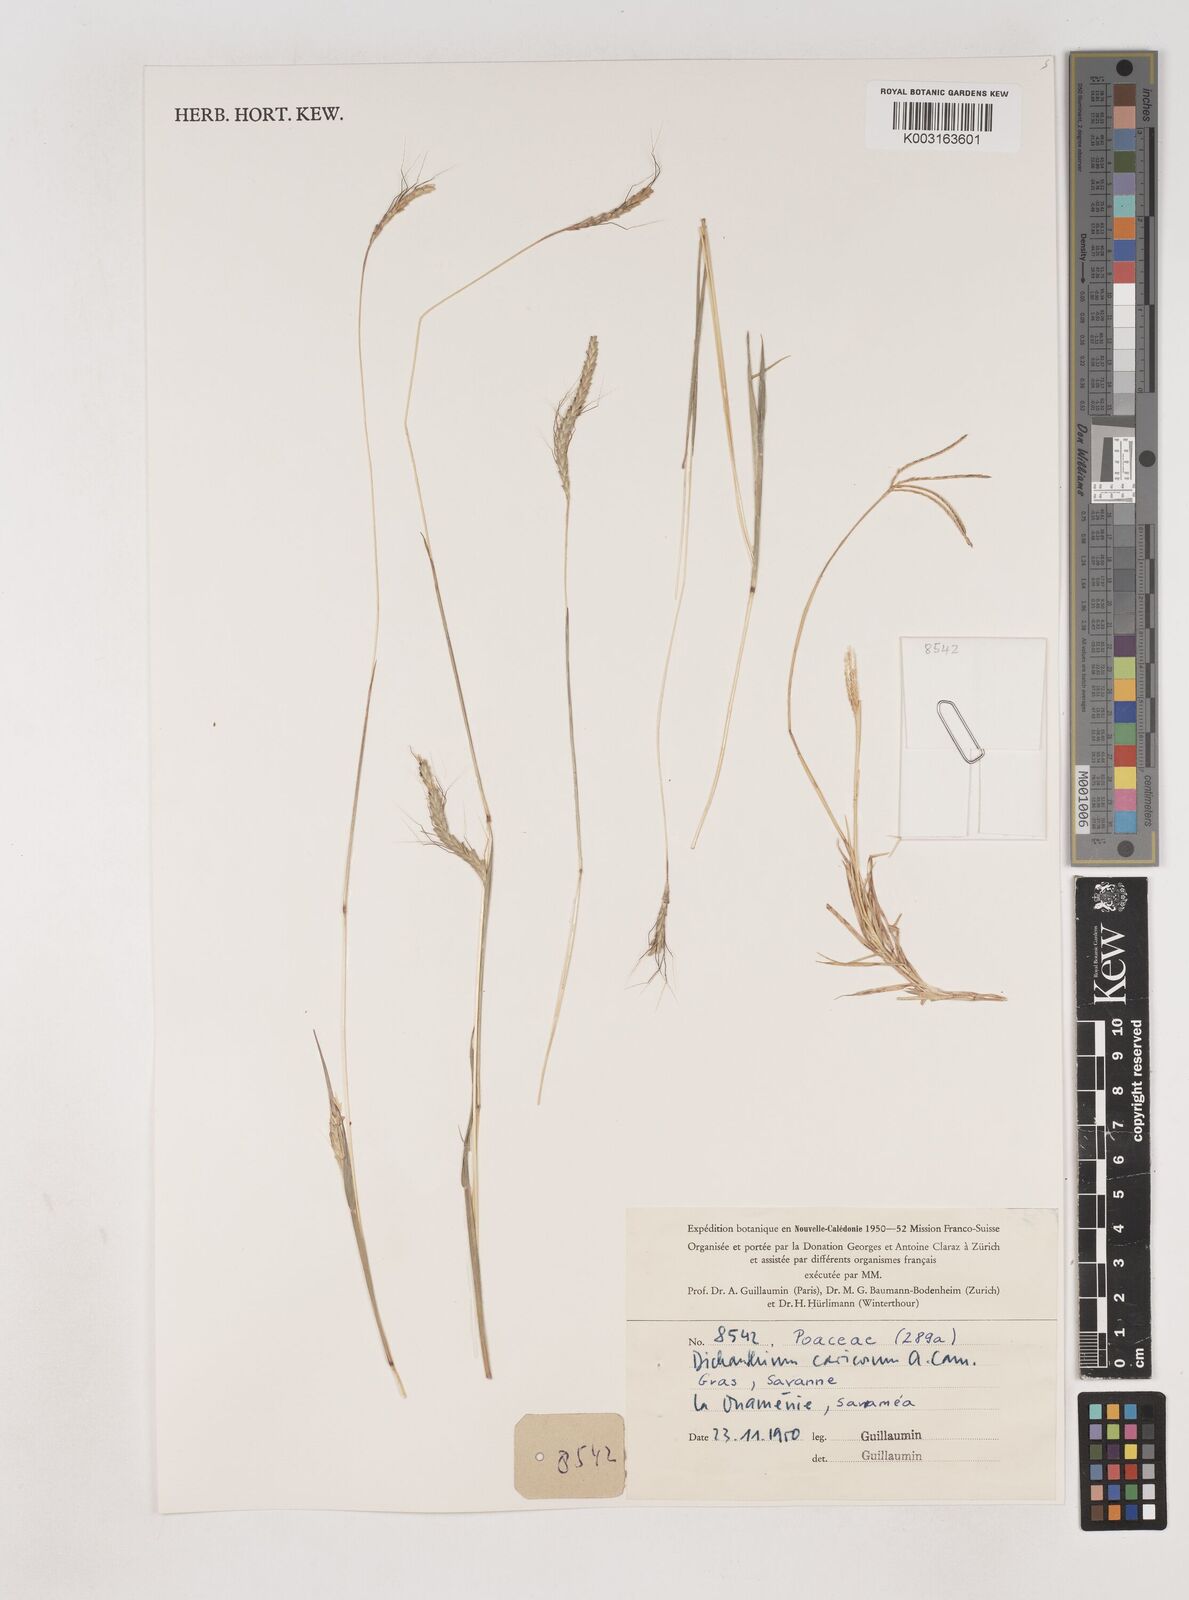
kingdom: Plantae
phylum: Tracheophyta
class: Liliopsida
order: Poales
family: Poaceae
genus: Dichanthium
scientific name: Dichanthium aristatum
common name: Angleton bluestem
